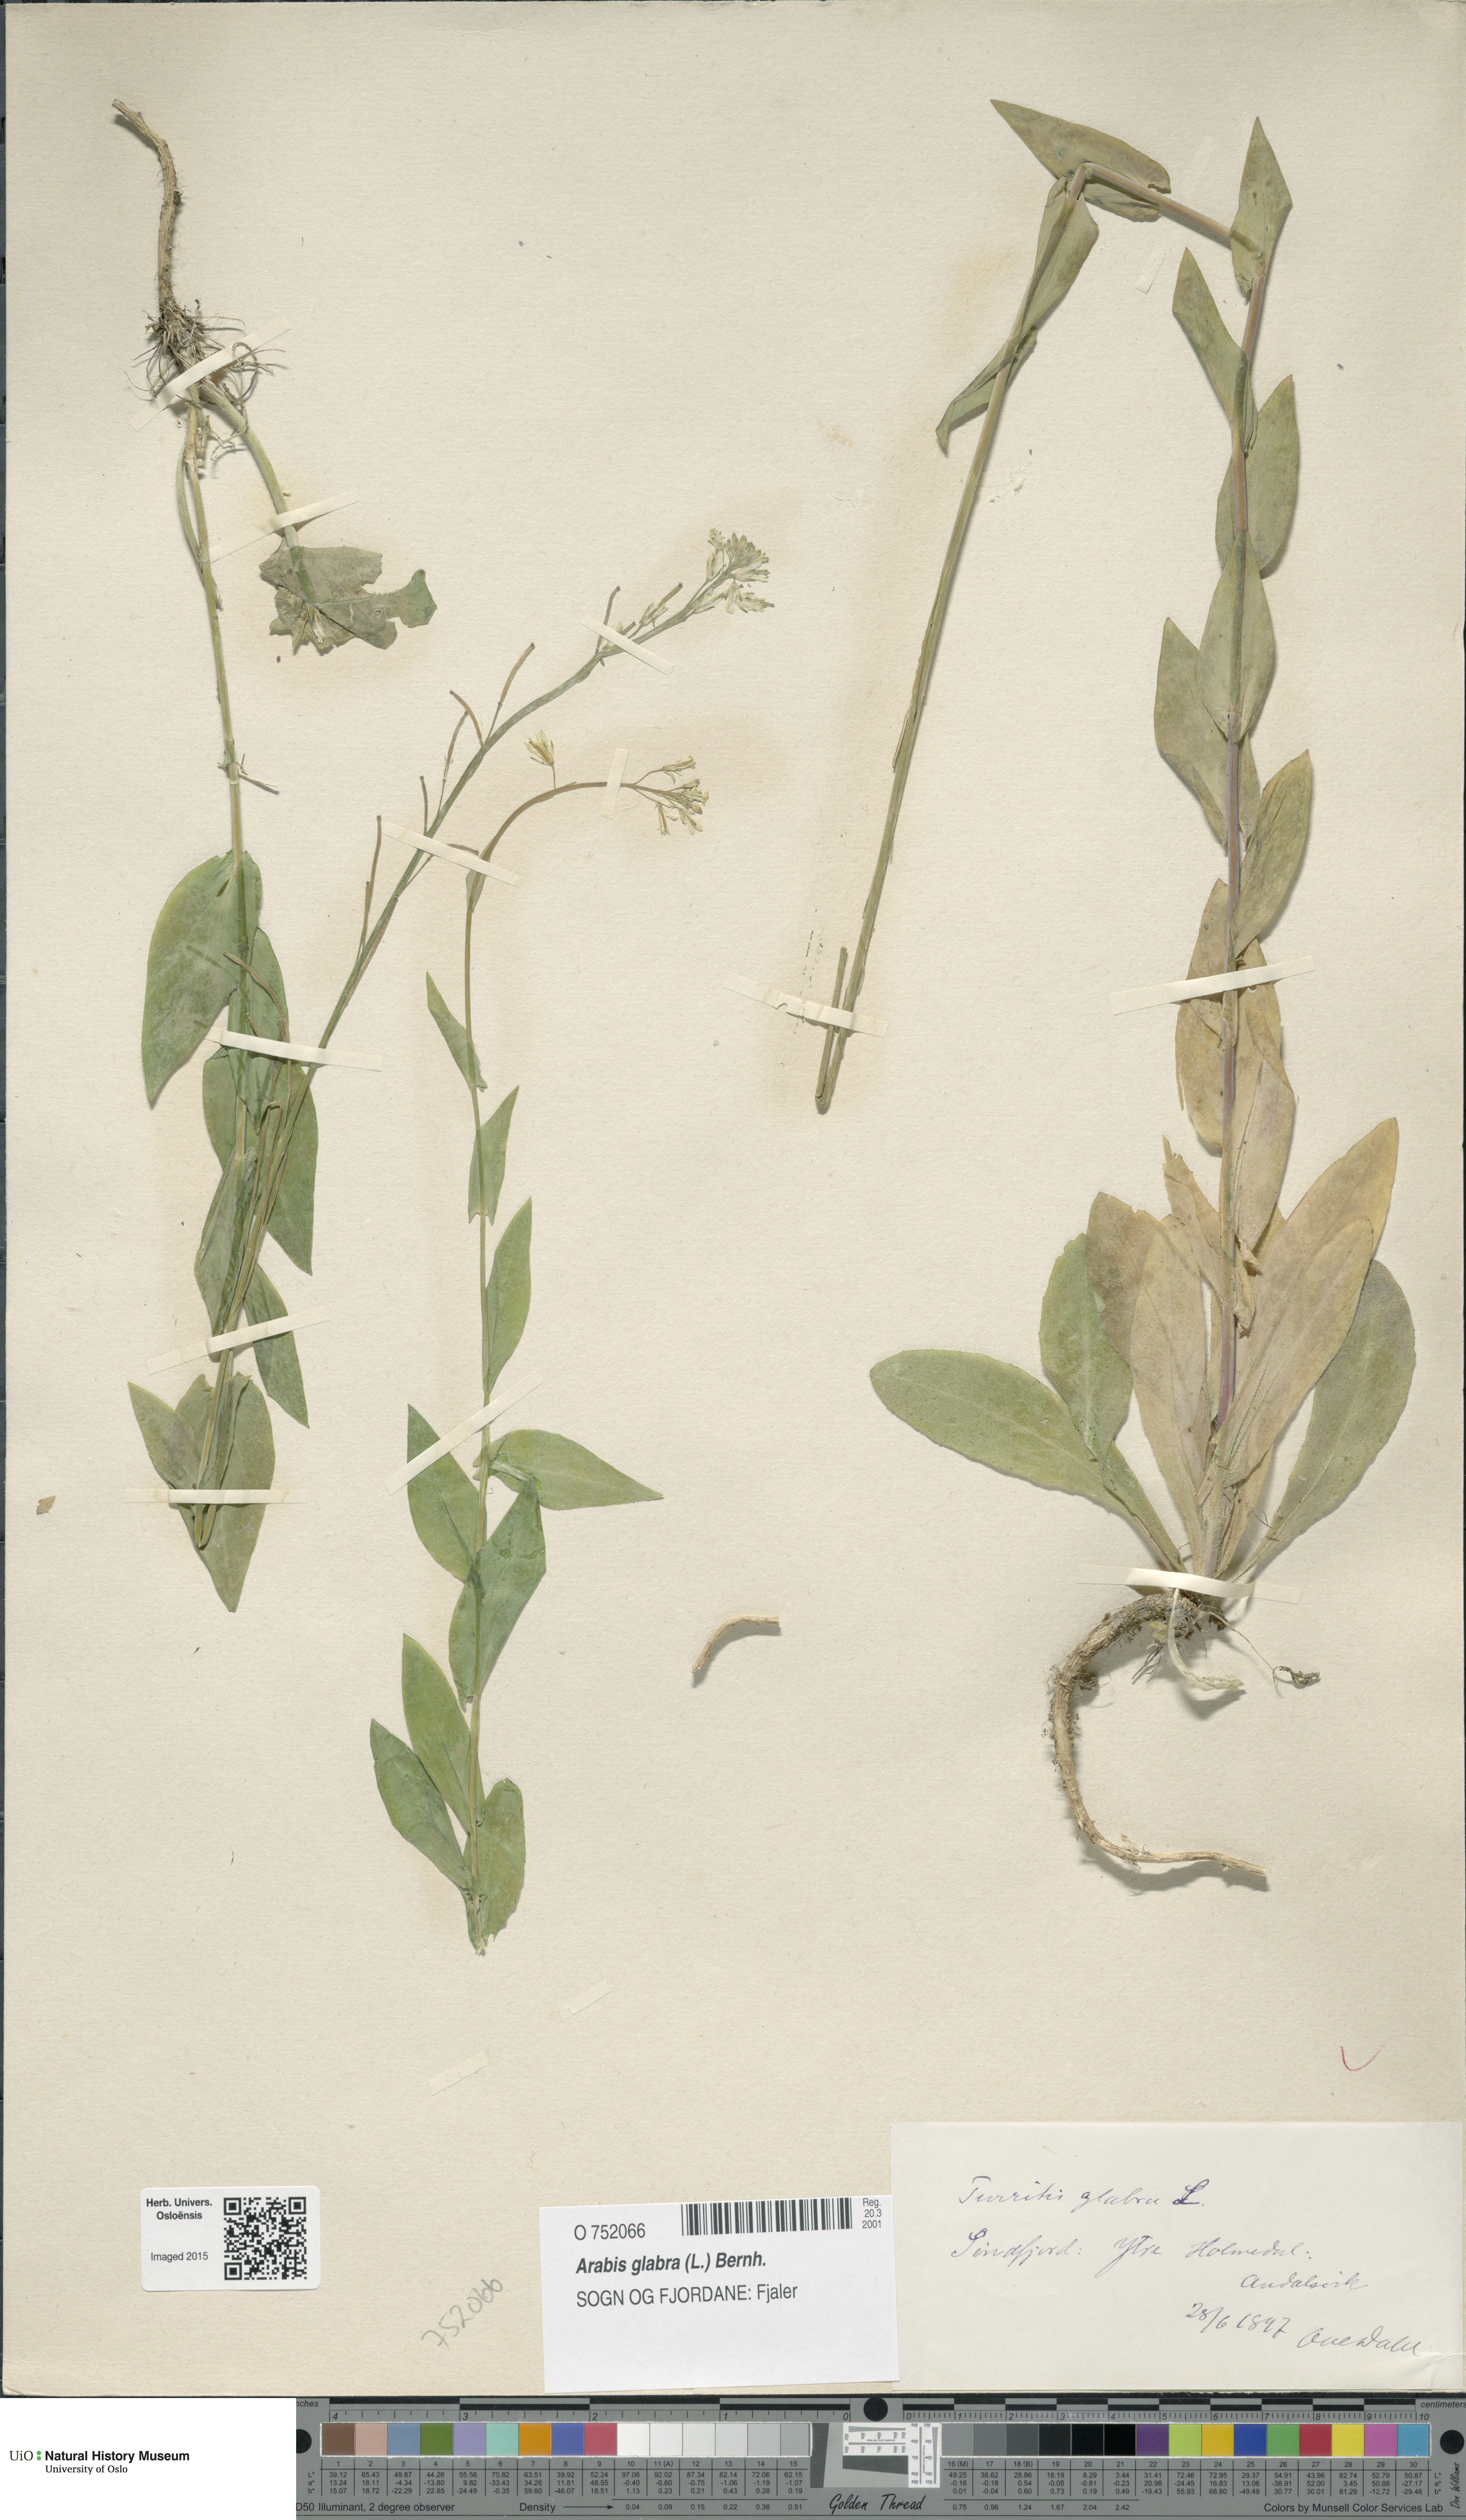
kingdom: Plantae
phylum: Tracheophyta
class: Magnoliopsida
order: Brassicales
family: Brassicaceae
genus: Turritis
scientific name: Turritis glabra
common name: Tower rockcress
